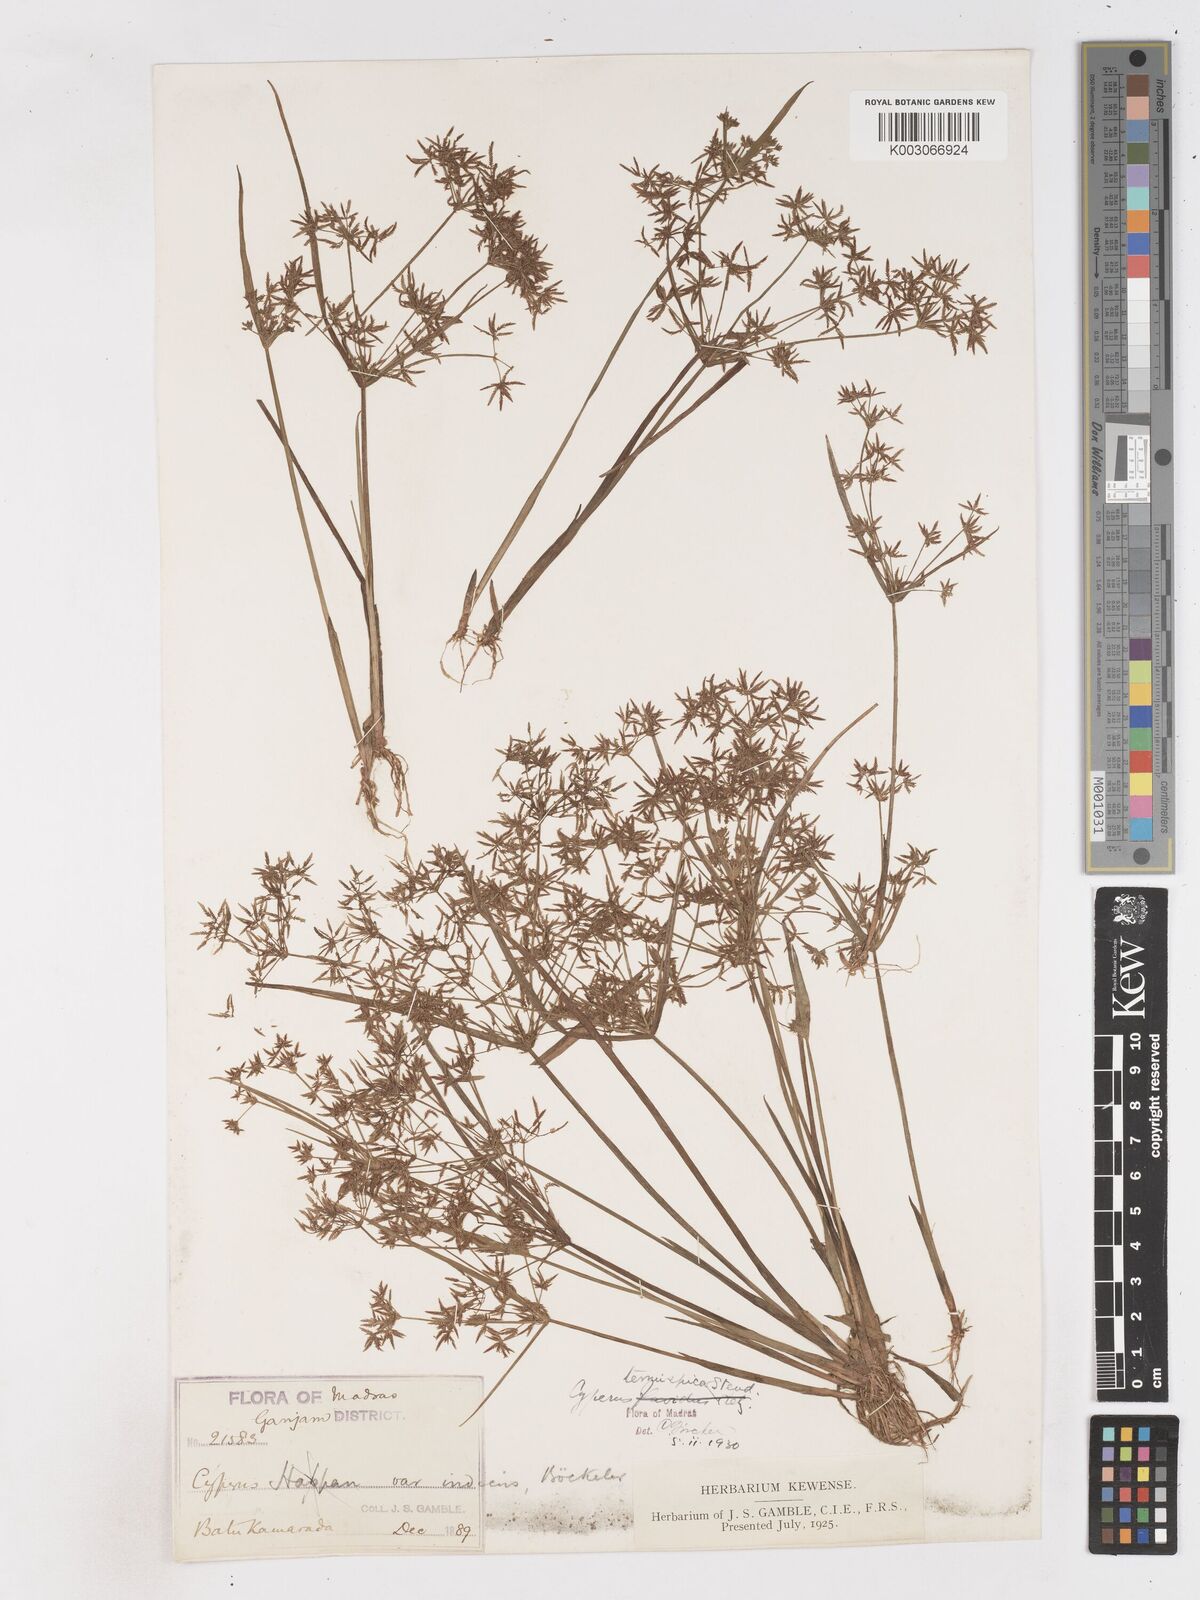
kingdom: Plantae
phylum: Tracheophyta
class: Liliopsida
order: Poales
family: Cyperaceae
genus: Cyperus
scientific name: Cyperus tenuispica
